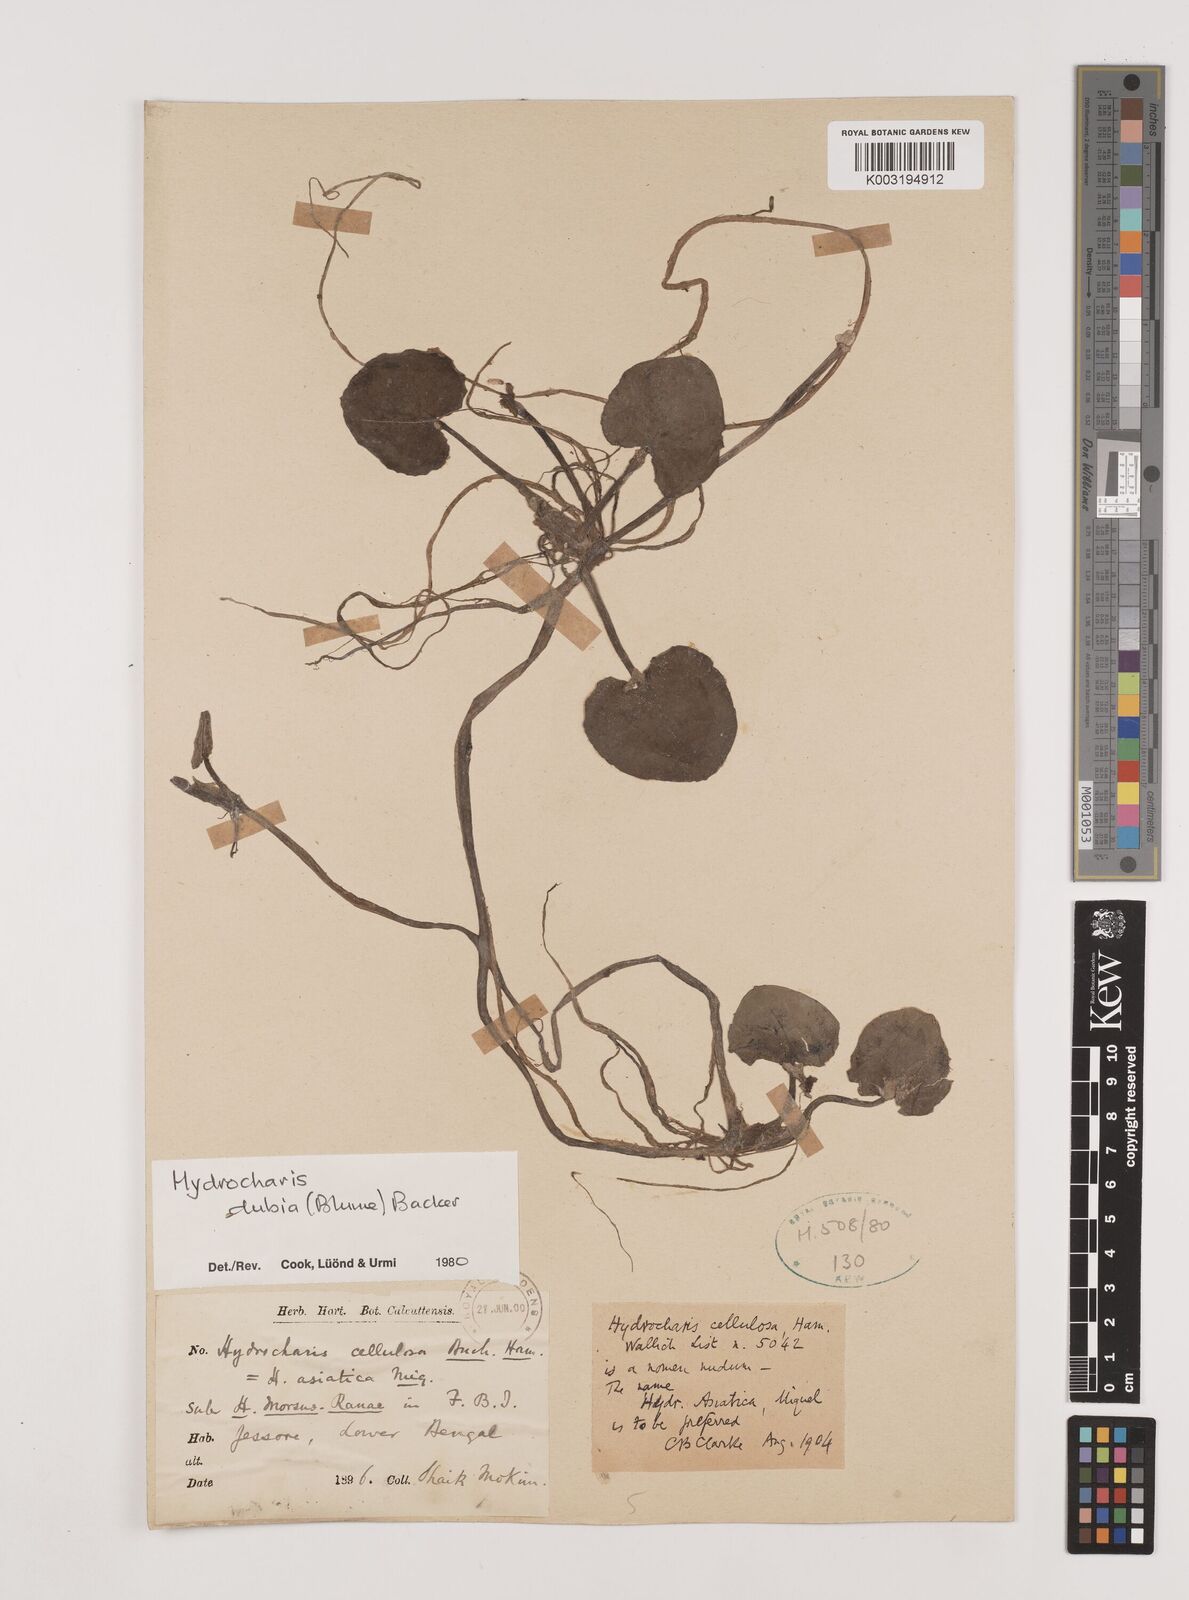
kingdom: Plantae
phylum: Tracheophyta
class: Liliopsida
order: Alismatales
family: Hydrocharitaceae
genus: Hydrocharis
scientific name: Hydrocharis dubia
